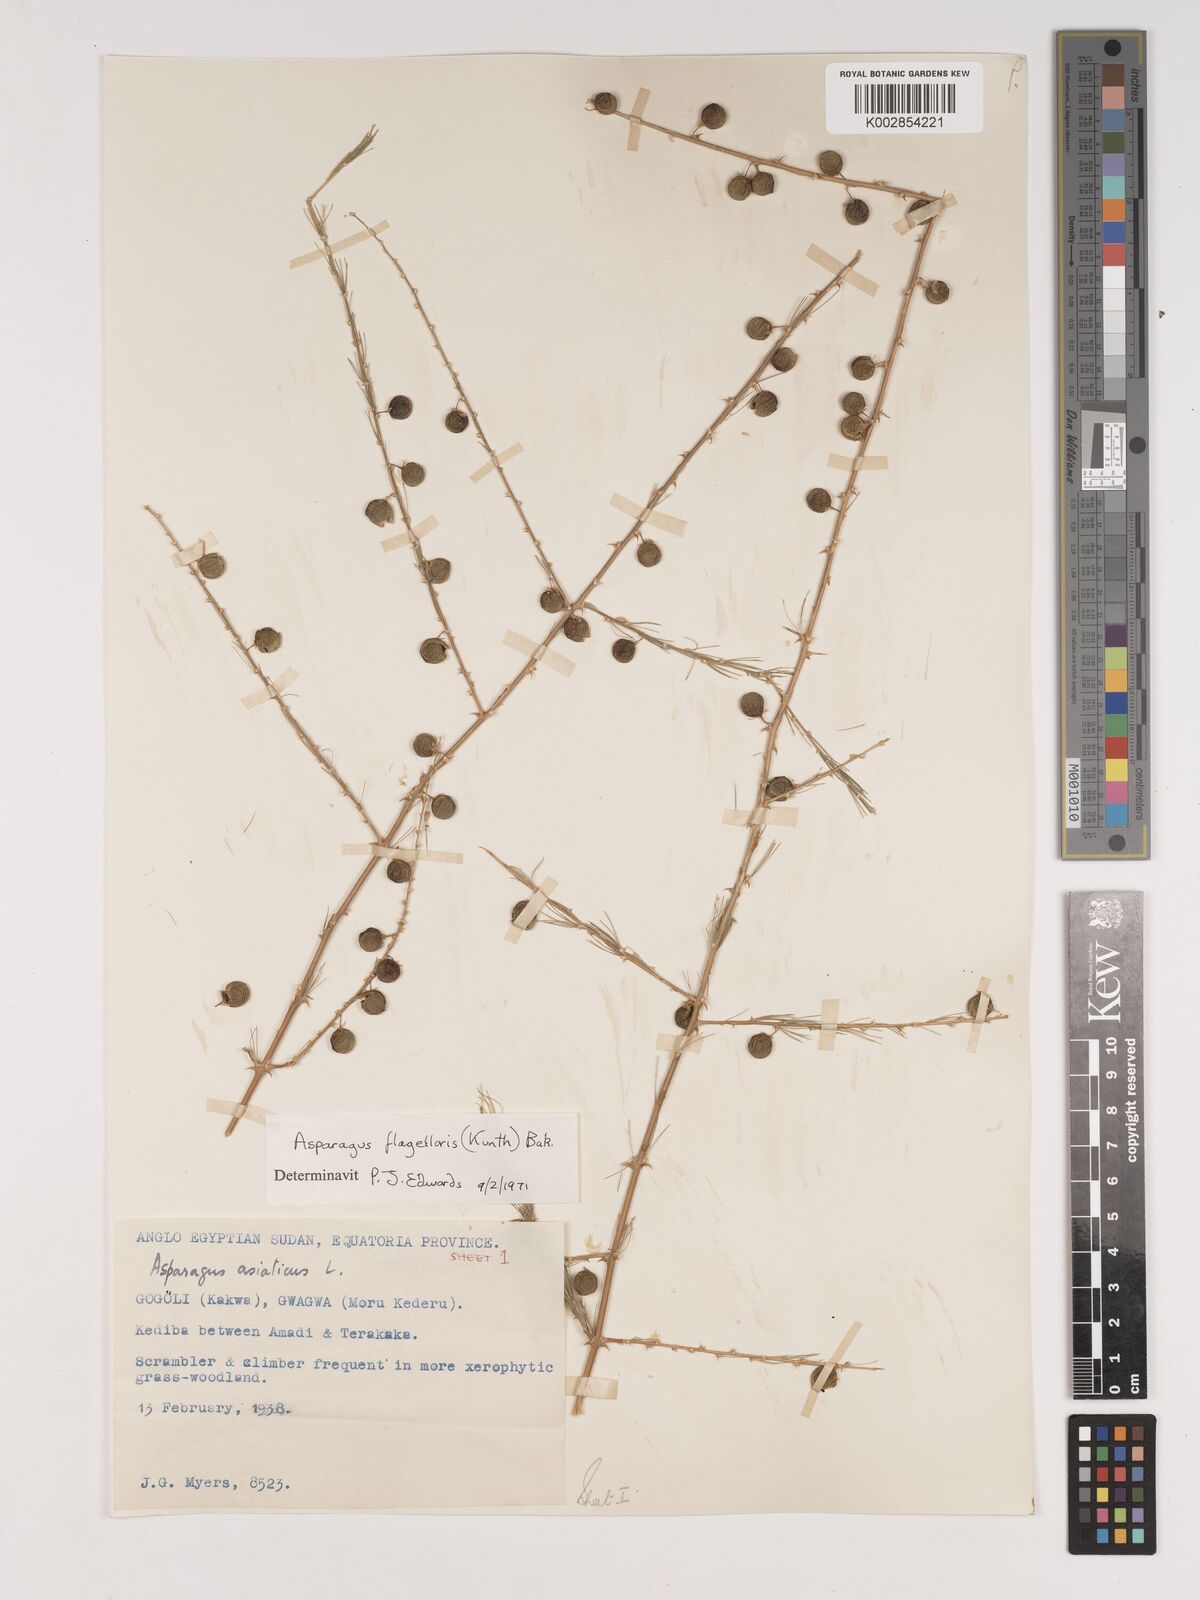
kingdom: Plantae
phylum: Tracheophyta
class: Liliopsida
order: Asparagales
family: Asparagaceae
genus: Asparagus
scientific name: Asparagus flagellaris
